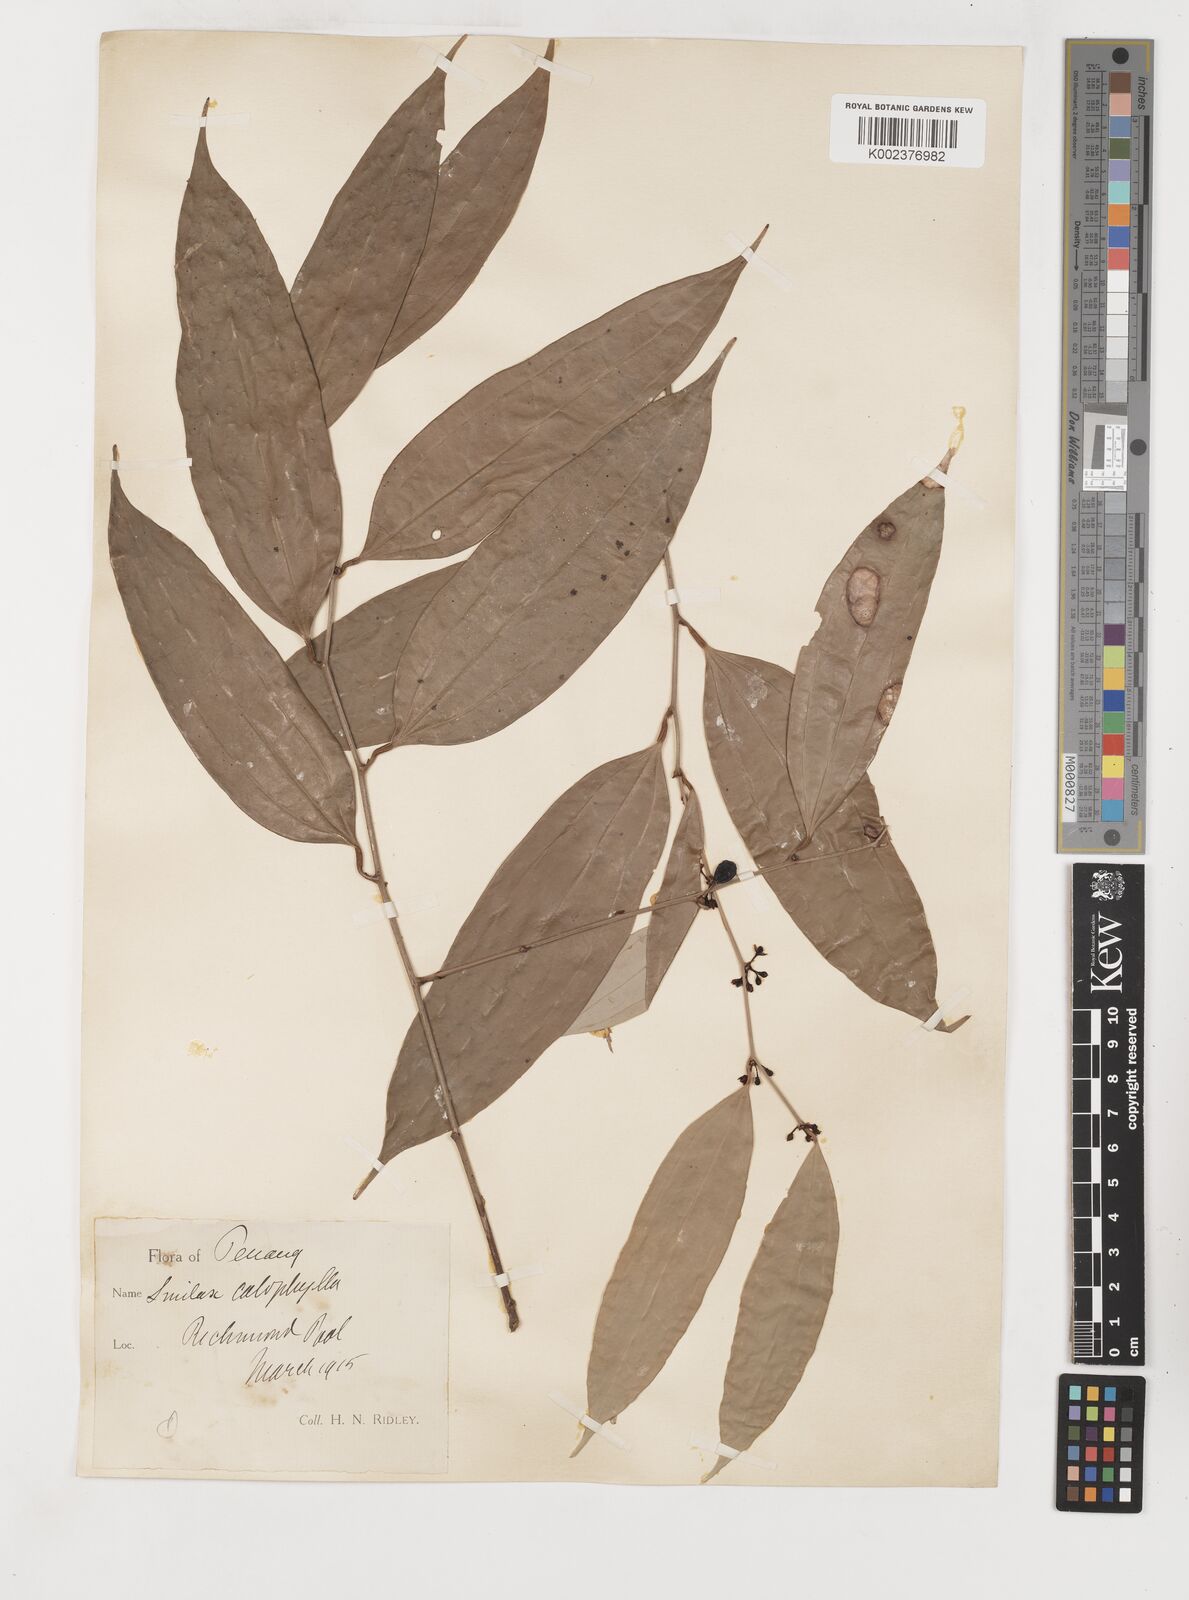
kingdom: Plantae
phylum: Tracheophyta
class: Liliopsida
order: Liliales
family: Smilacaceae
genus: Smilax
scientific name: Smilax calophylla
